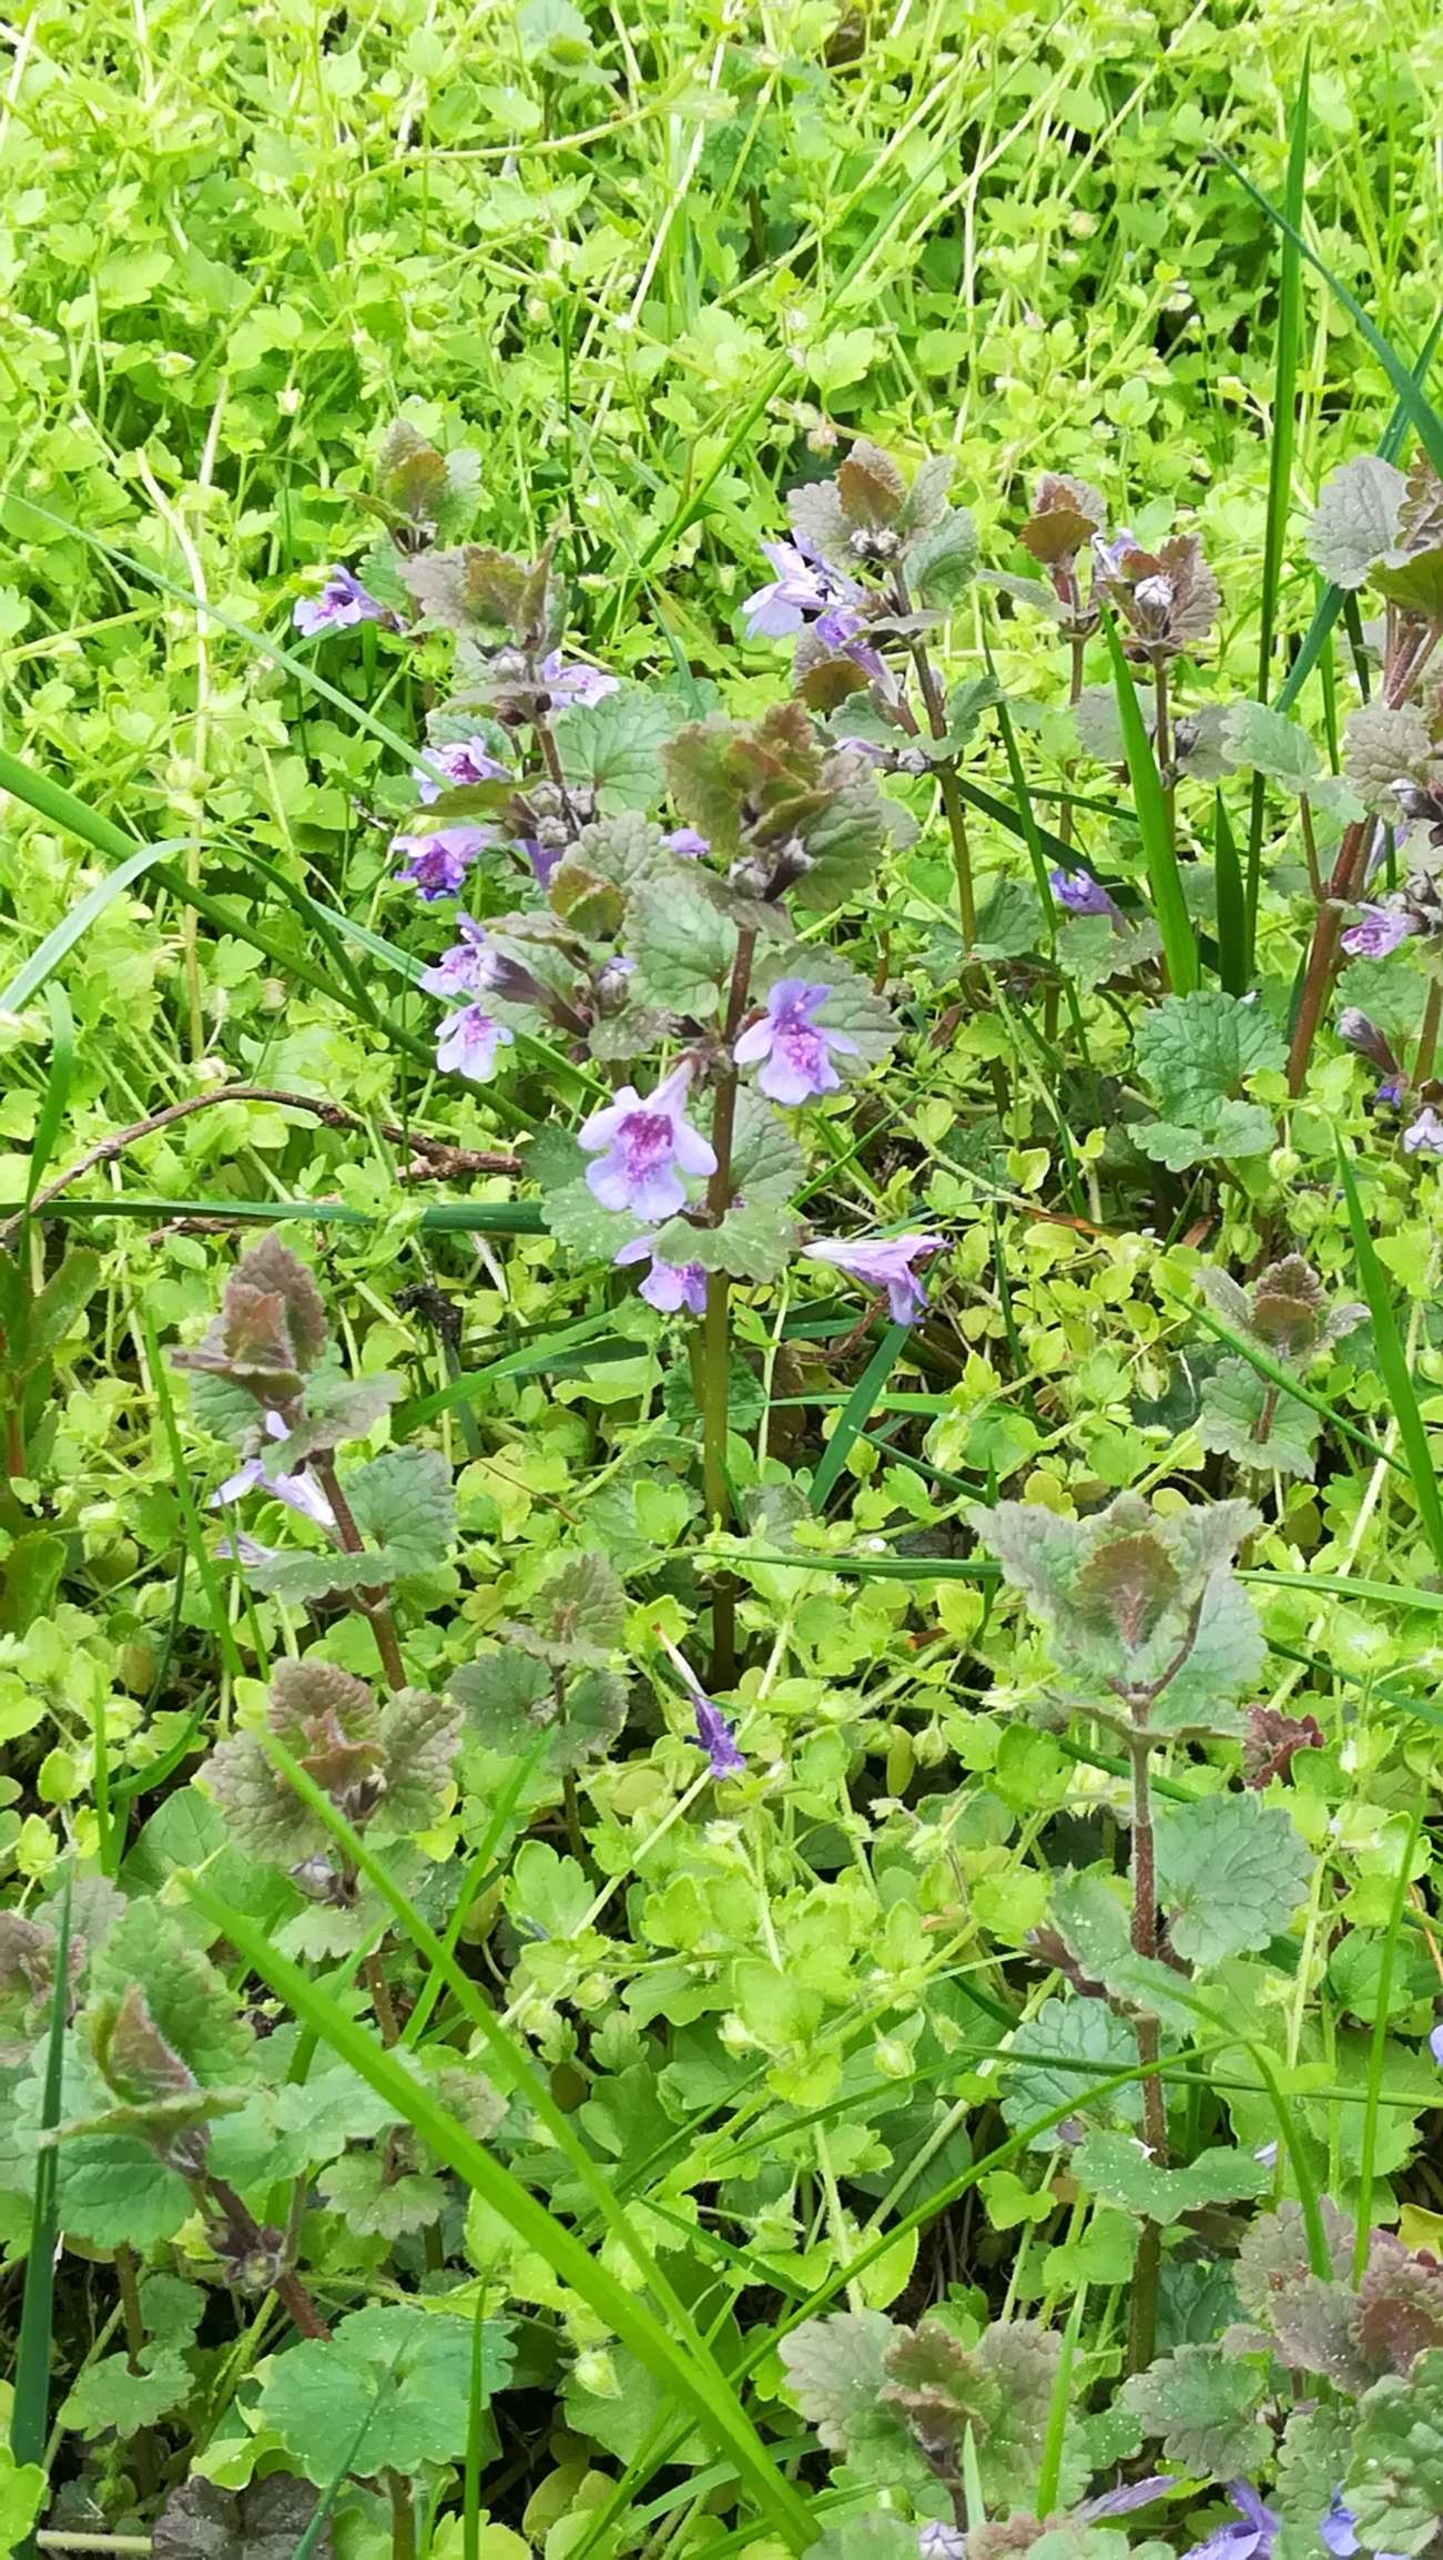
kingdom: Plantae
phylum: Tracheophyta
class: Magnoliopsida
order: Lamiales
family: Lamiaceae
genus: Glechoma
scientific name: Glechoma hederacea
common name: Korsknap
